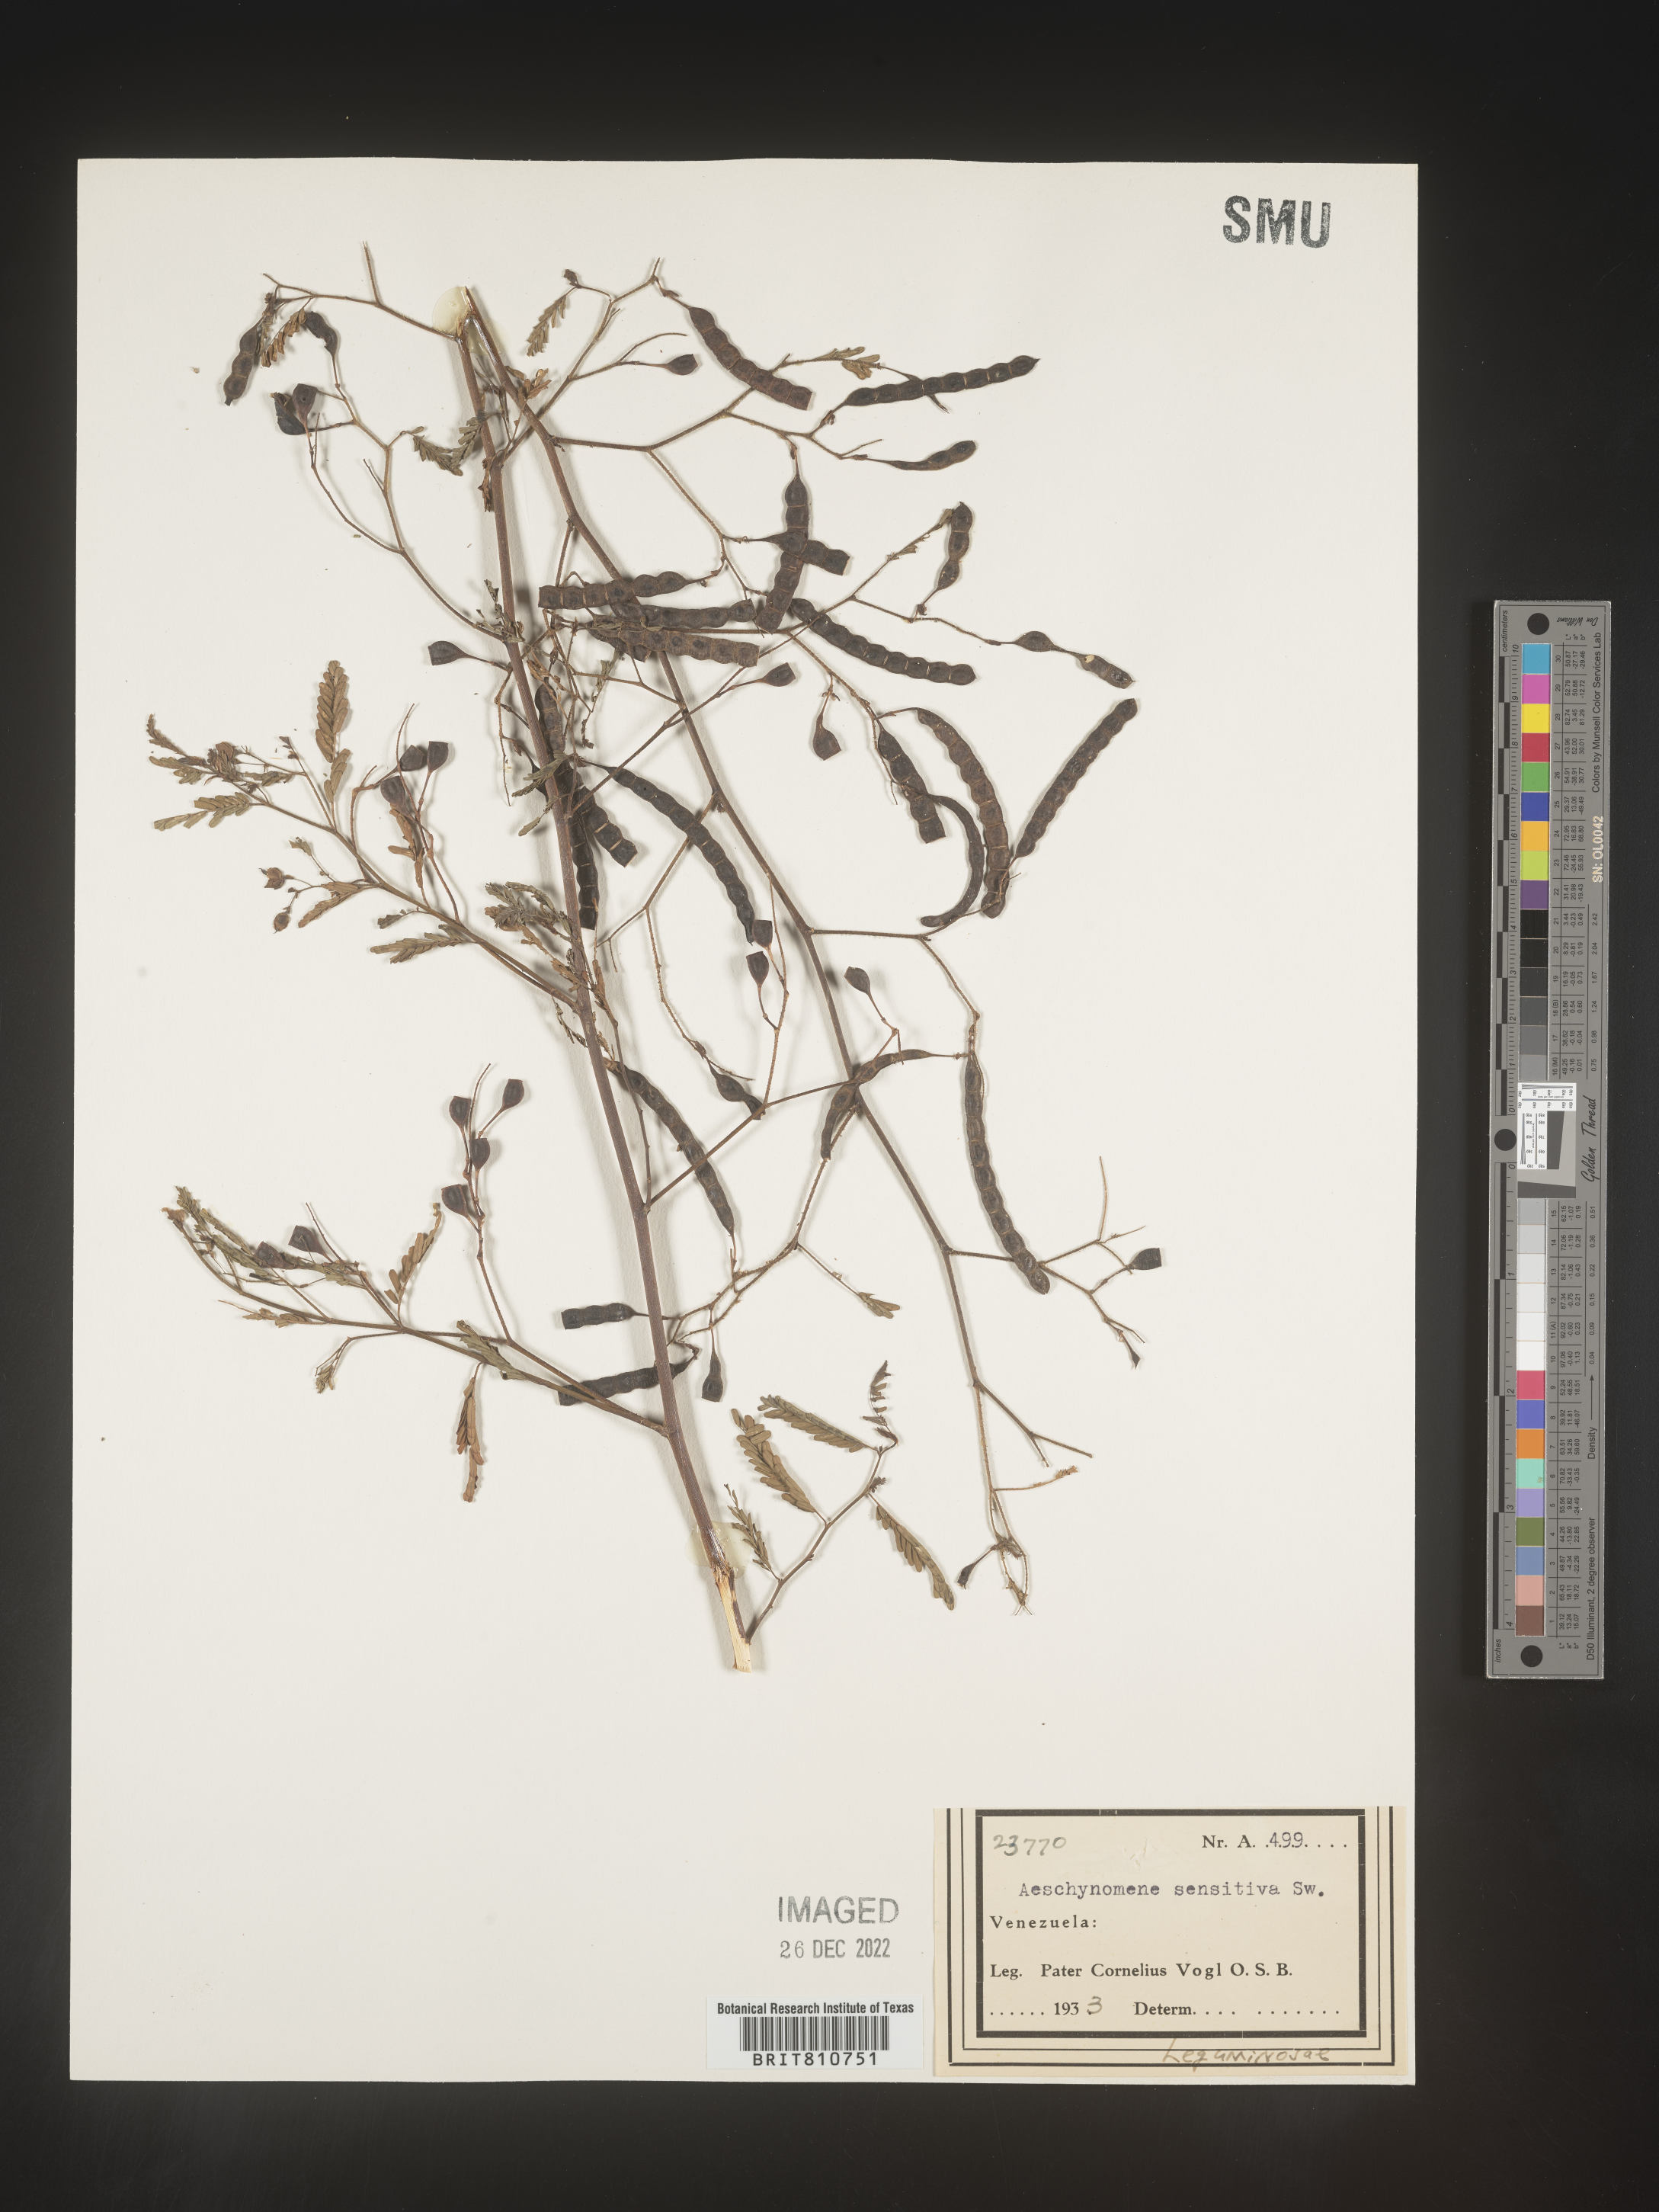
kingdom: Plantae
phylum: Tracheophyta
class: Magnoliopsida
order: Fabales
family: Fabaceae
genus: Aeschynomene
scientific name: Aeschynomene
